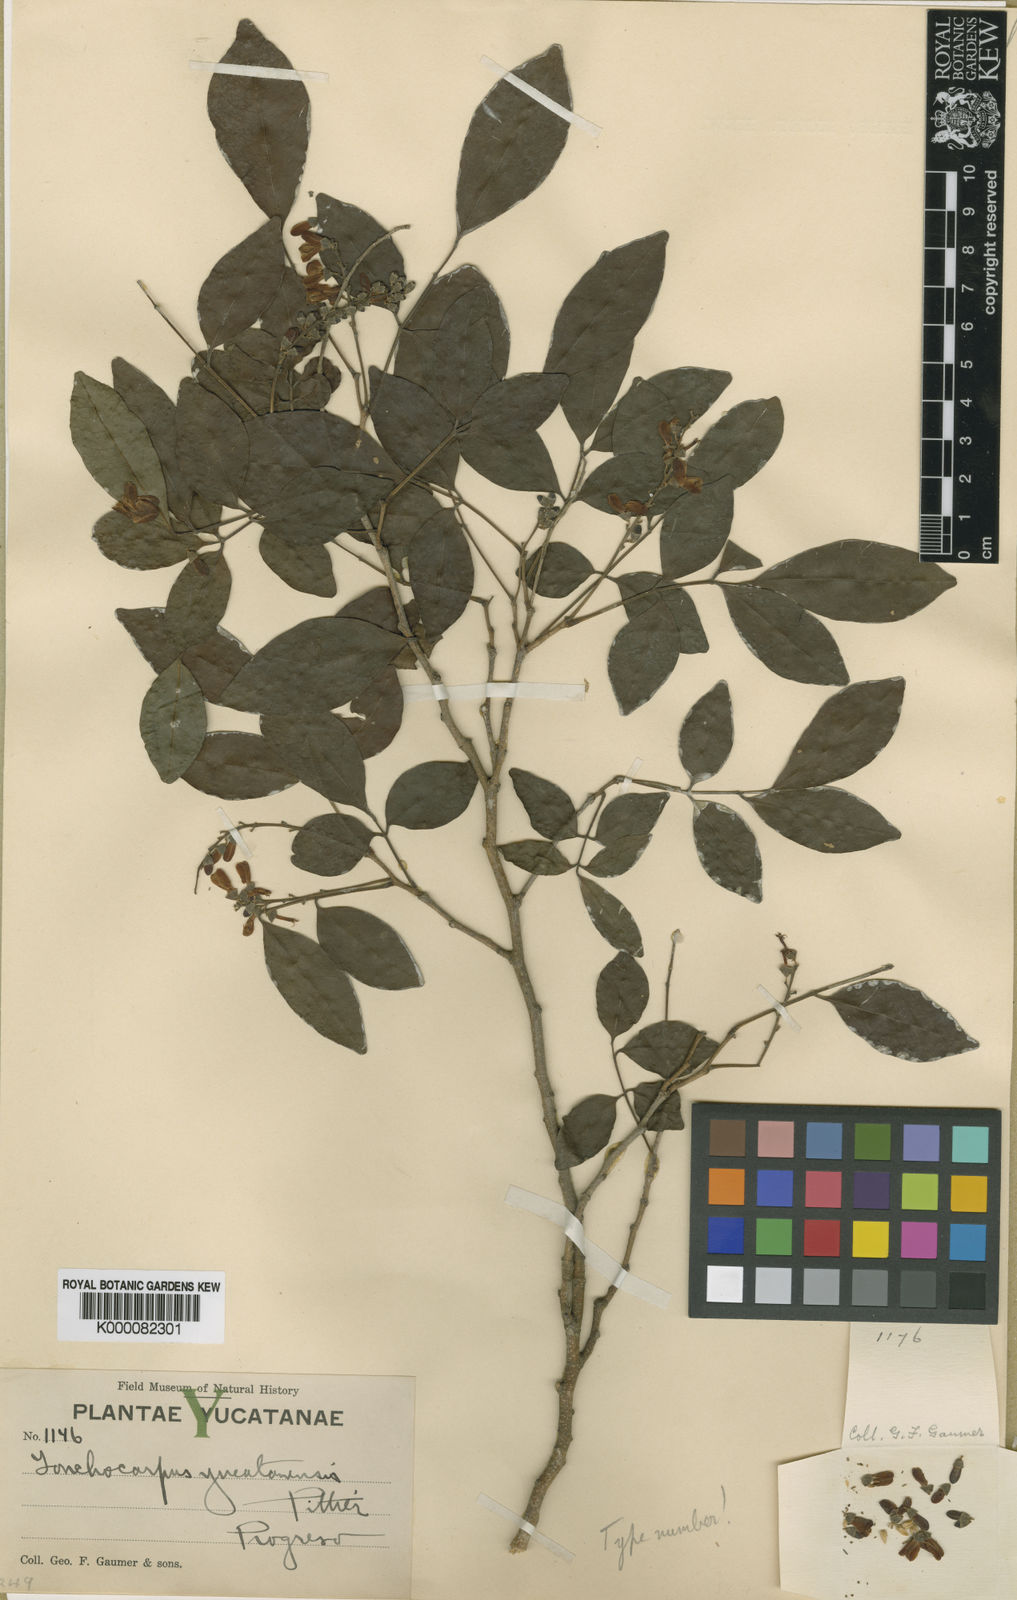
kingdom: Plantae
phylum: Tracheophyta
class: Magnoliopsida
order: Fabales
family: Fabaceae
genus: Lonchocarpus
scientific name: Lonchocarpus yucatanensis
